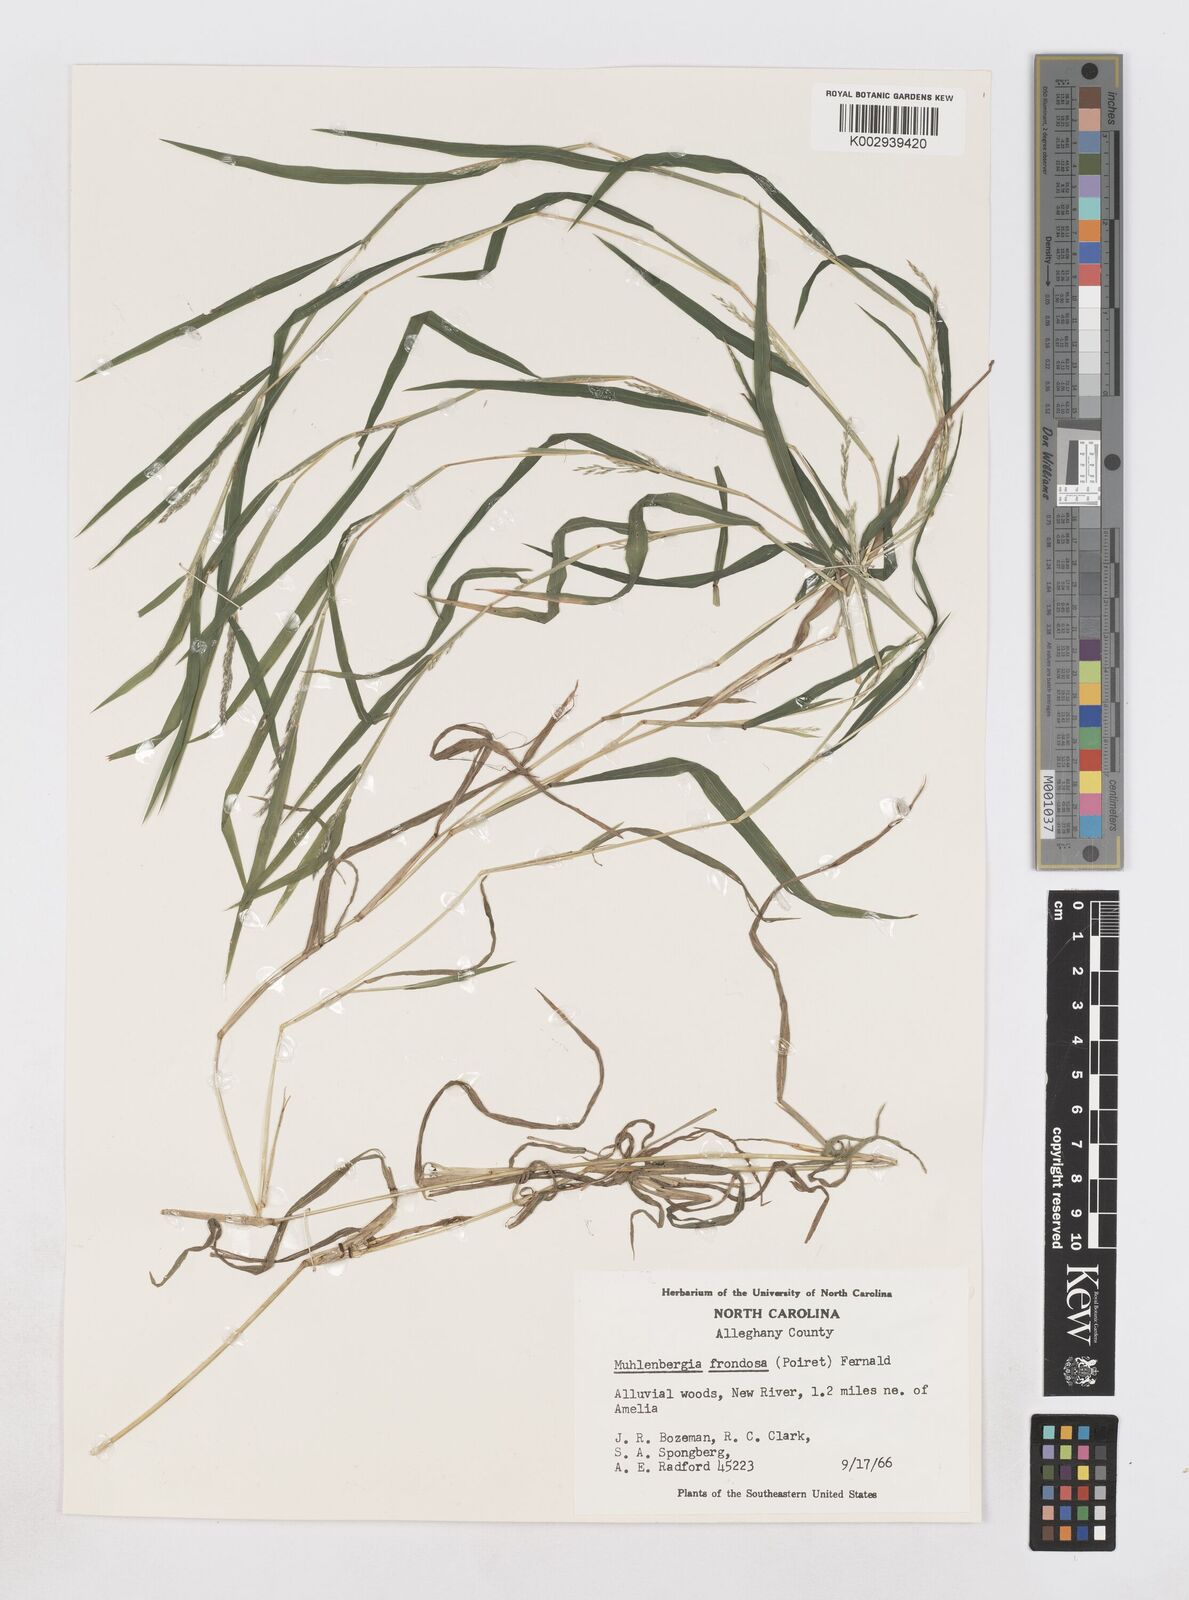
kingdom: Plantae
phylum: Tracheophyta
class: Liliopsida
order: Poales
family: Poaceae
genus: Muhlenbergia
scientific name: Muhlenbergia frondosa
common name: Common satingrass
